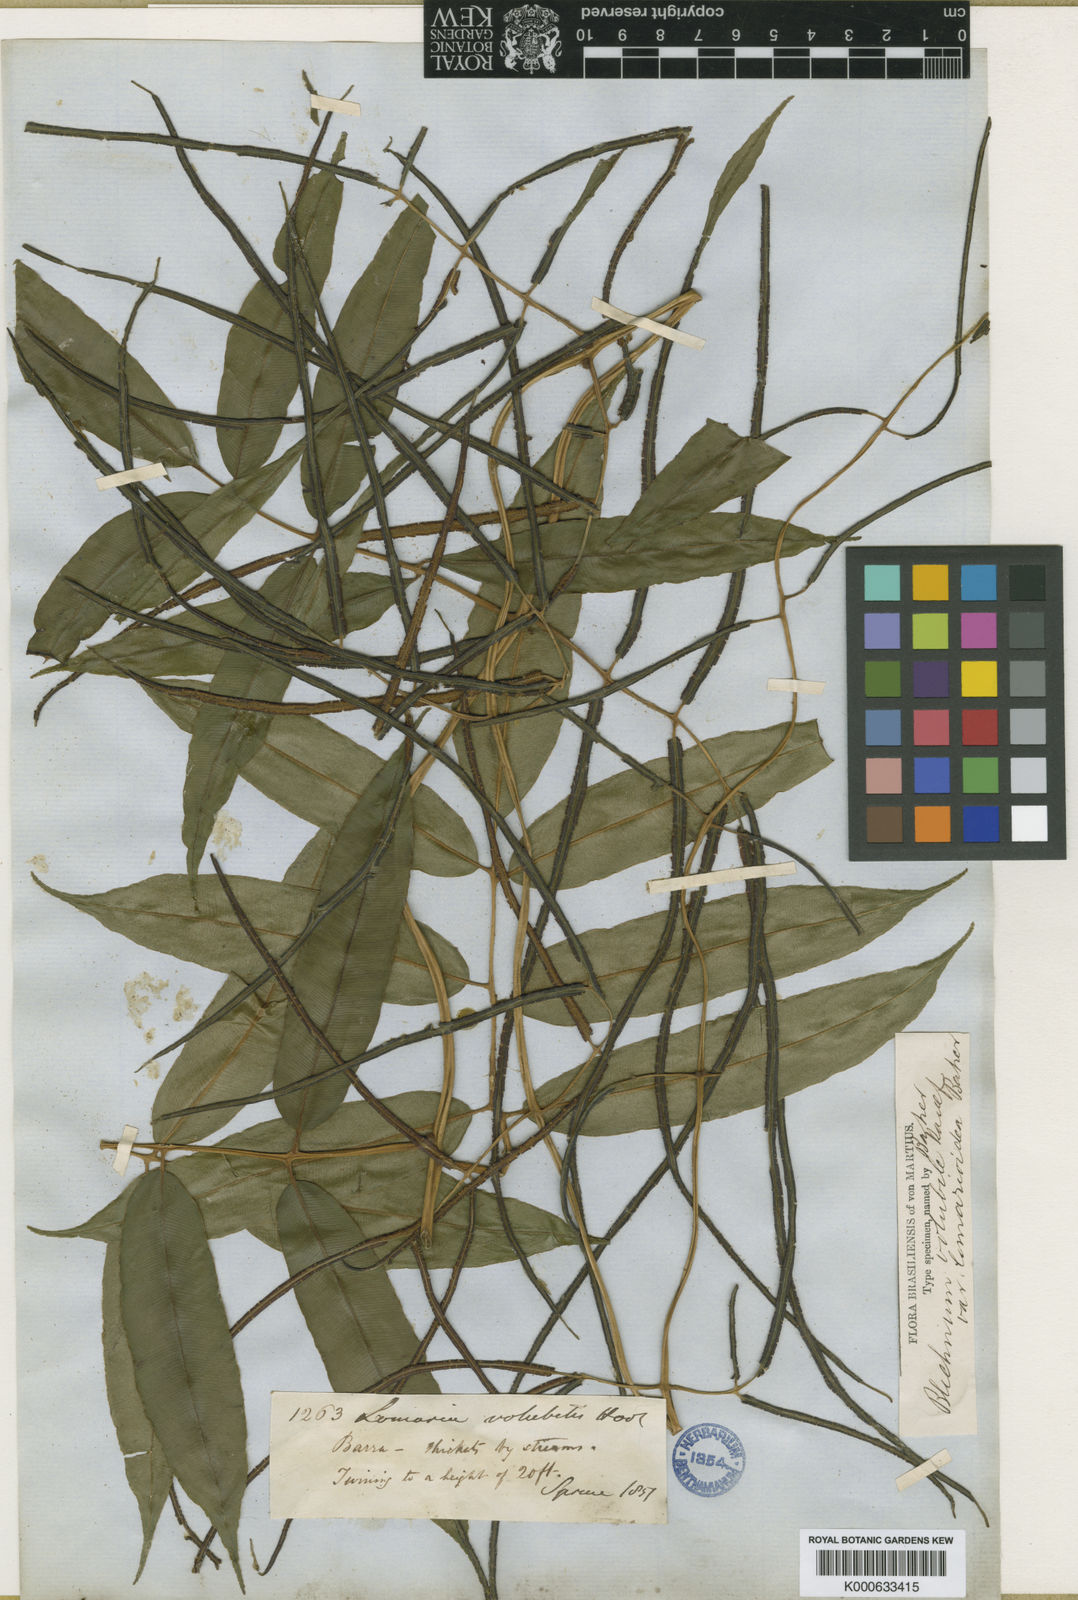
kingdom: Plantae
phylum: Tracheophyta
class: Polypodiopsida
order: Polypodiales
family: Blechnaceae
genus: Salpichlaena
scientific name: Salpichlaena volubilis
